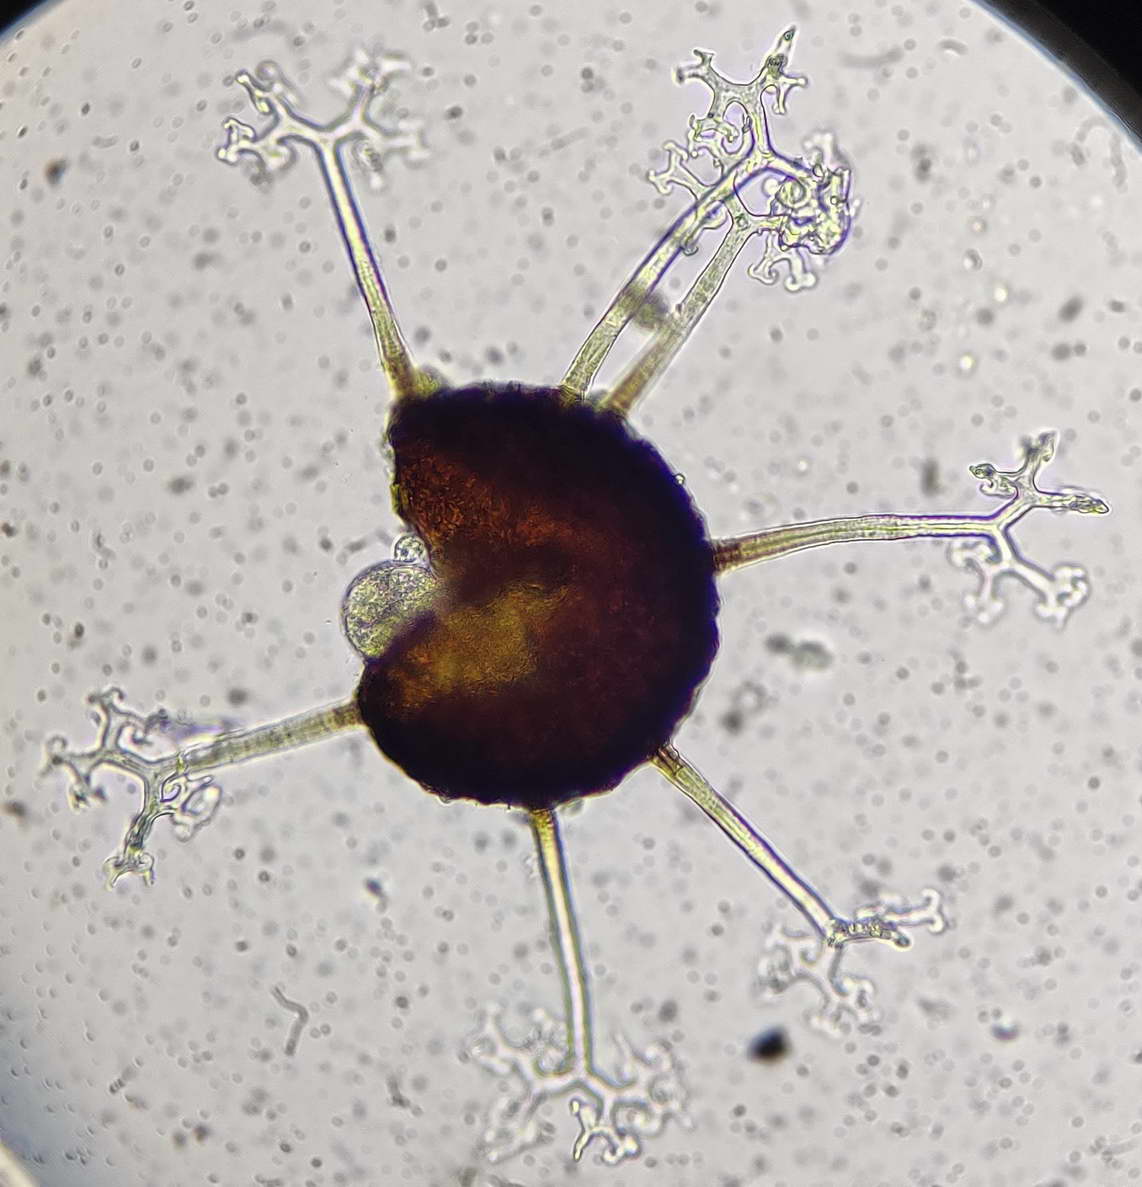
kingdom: Fungi
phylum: Ascomycota
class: Leotiomycetes
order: Helotiales
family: Erysiphaceae
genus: Erysiphe
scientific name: Erysiphe syringae-japonicae
